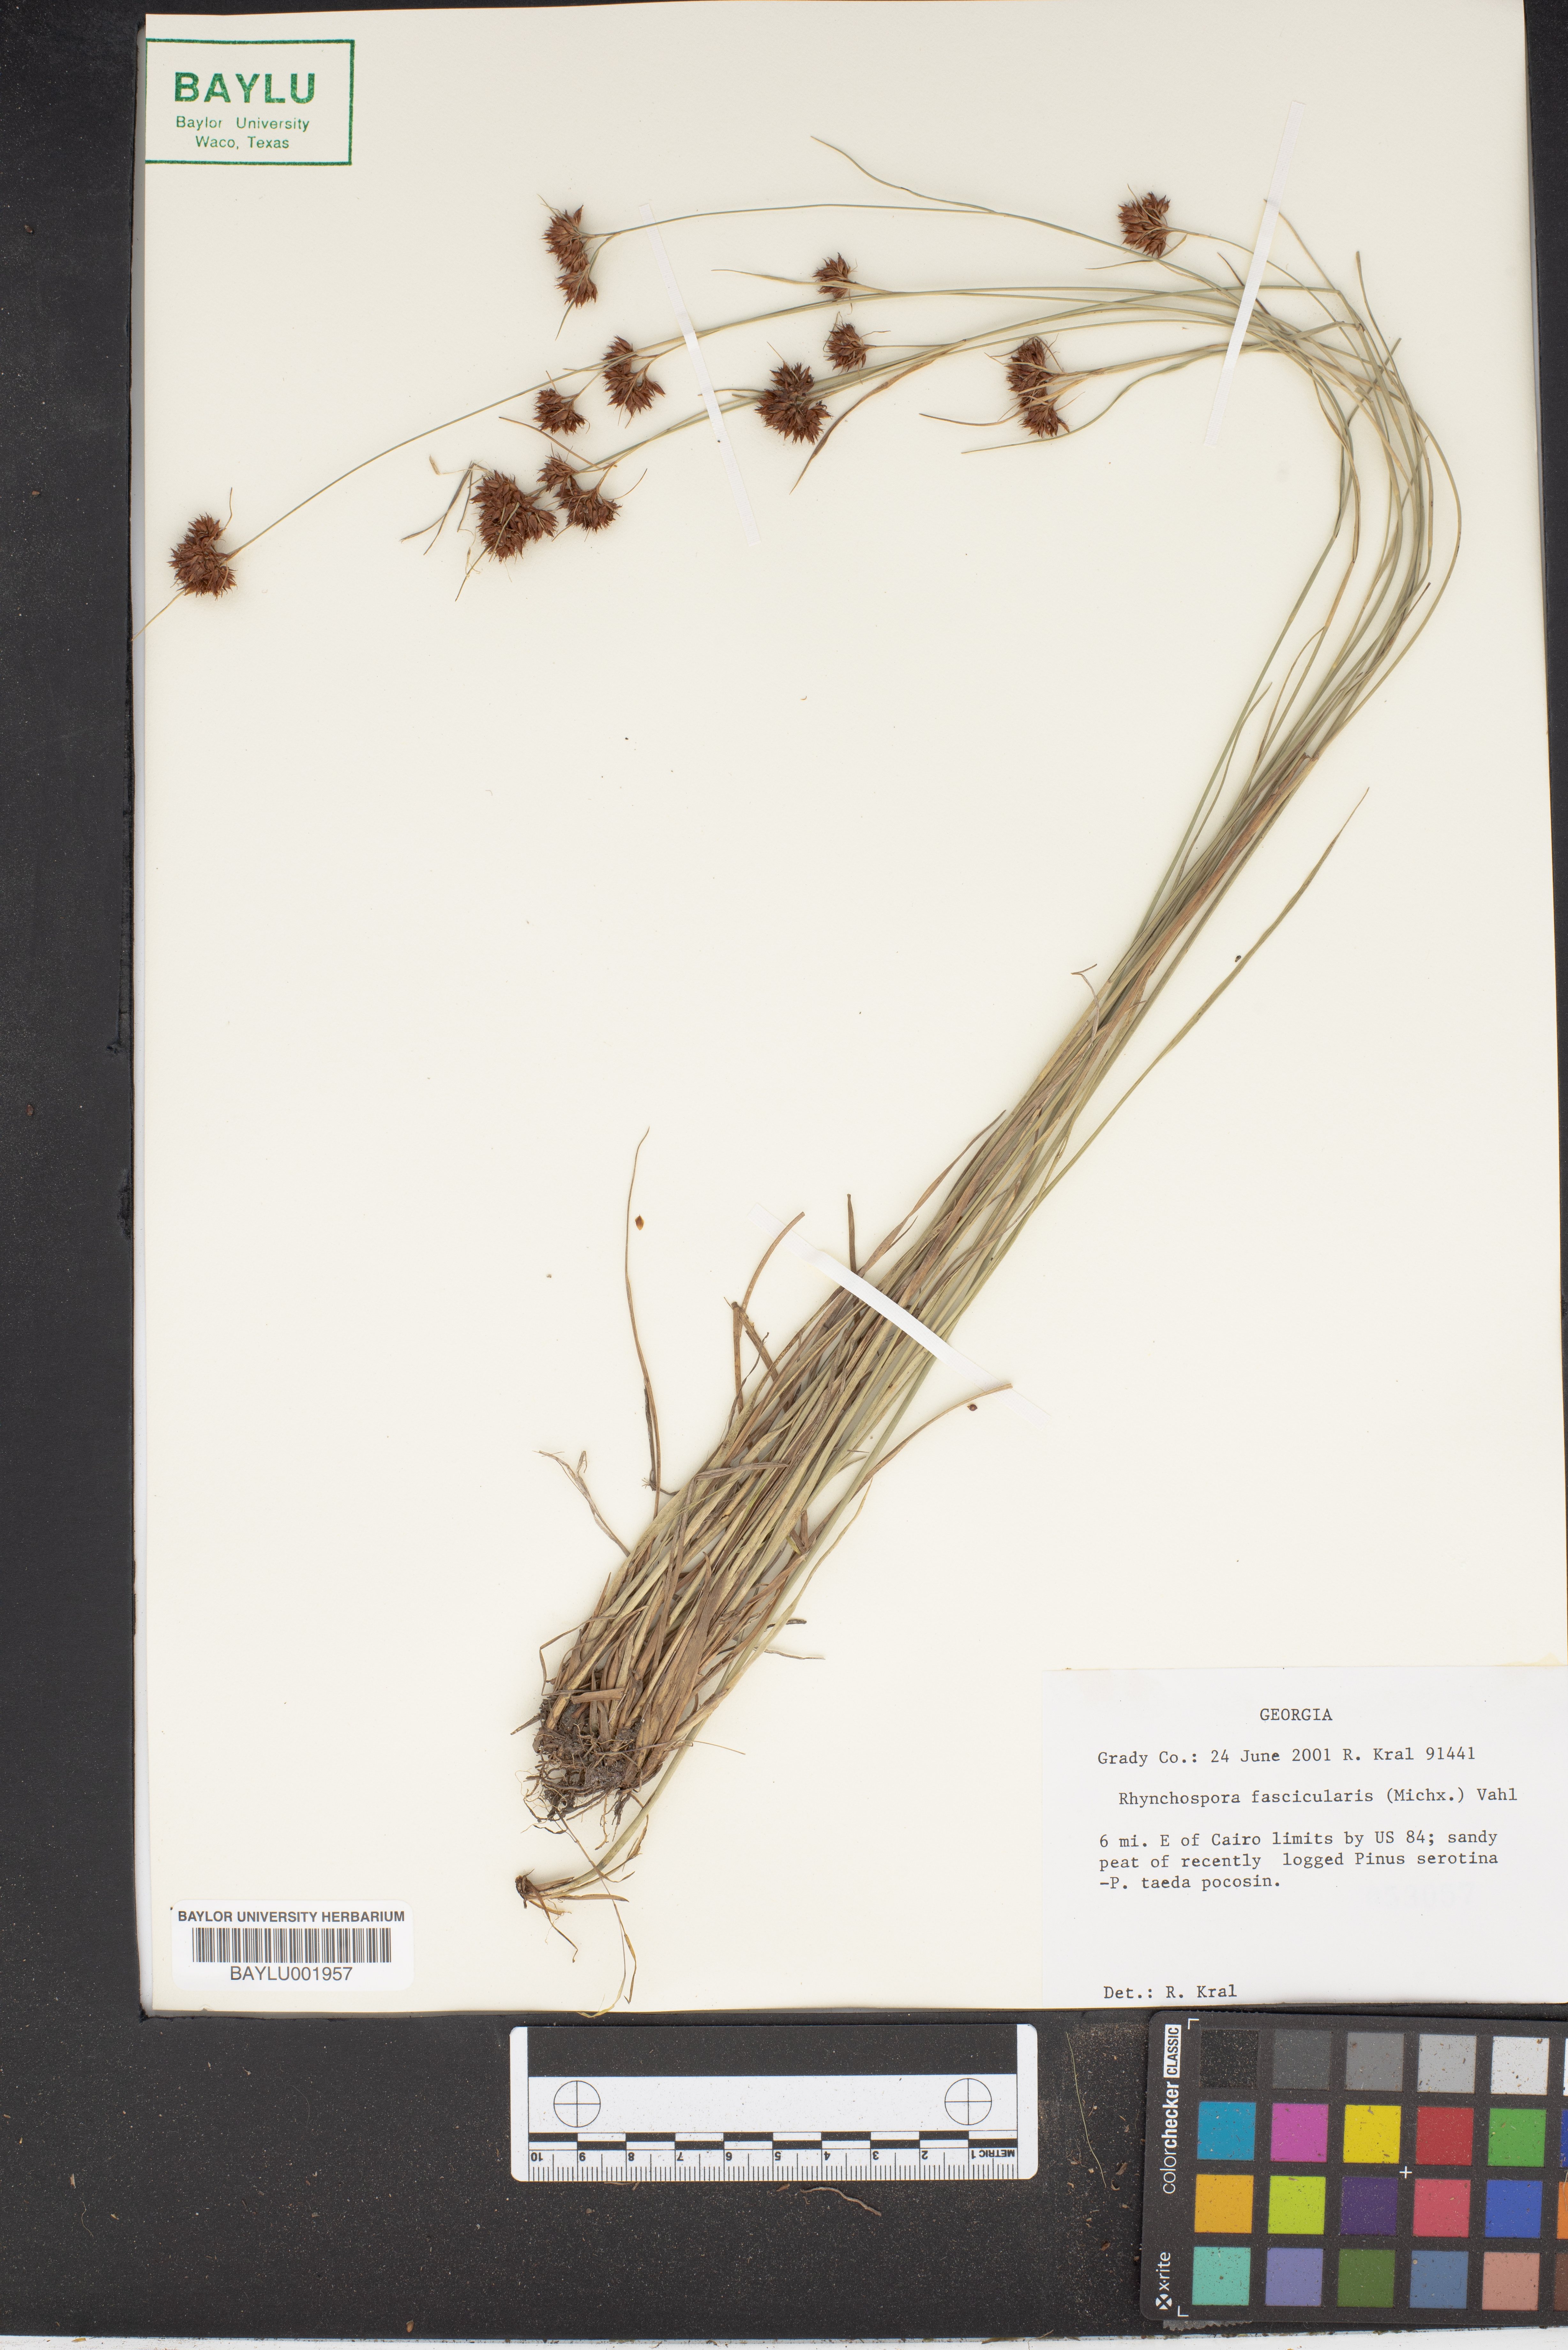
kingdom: Plantae
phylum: Tracheophyta
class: Liliopsida
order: Poales
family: Cyperaceae
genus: Rhynchospora
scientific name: Rhynchospora fascicularis
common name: Fascicled beak sedge
